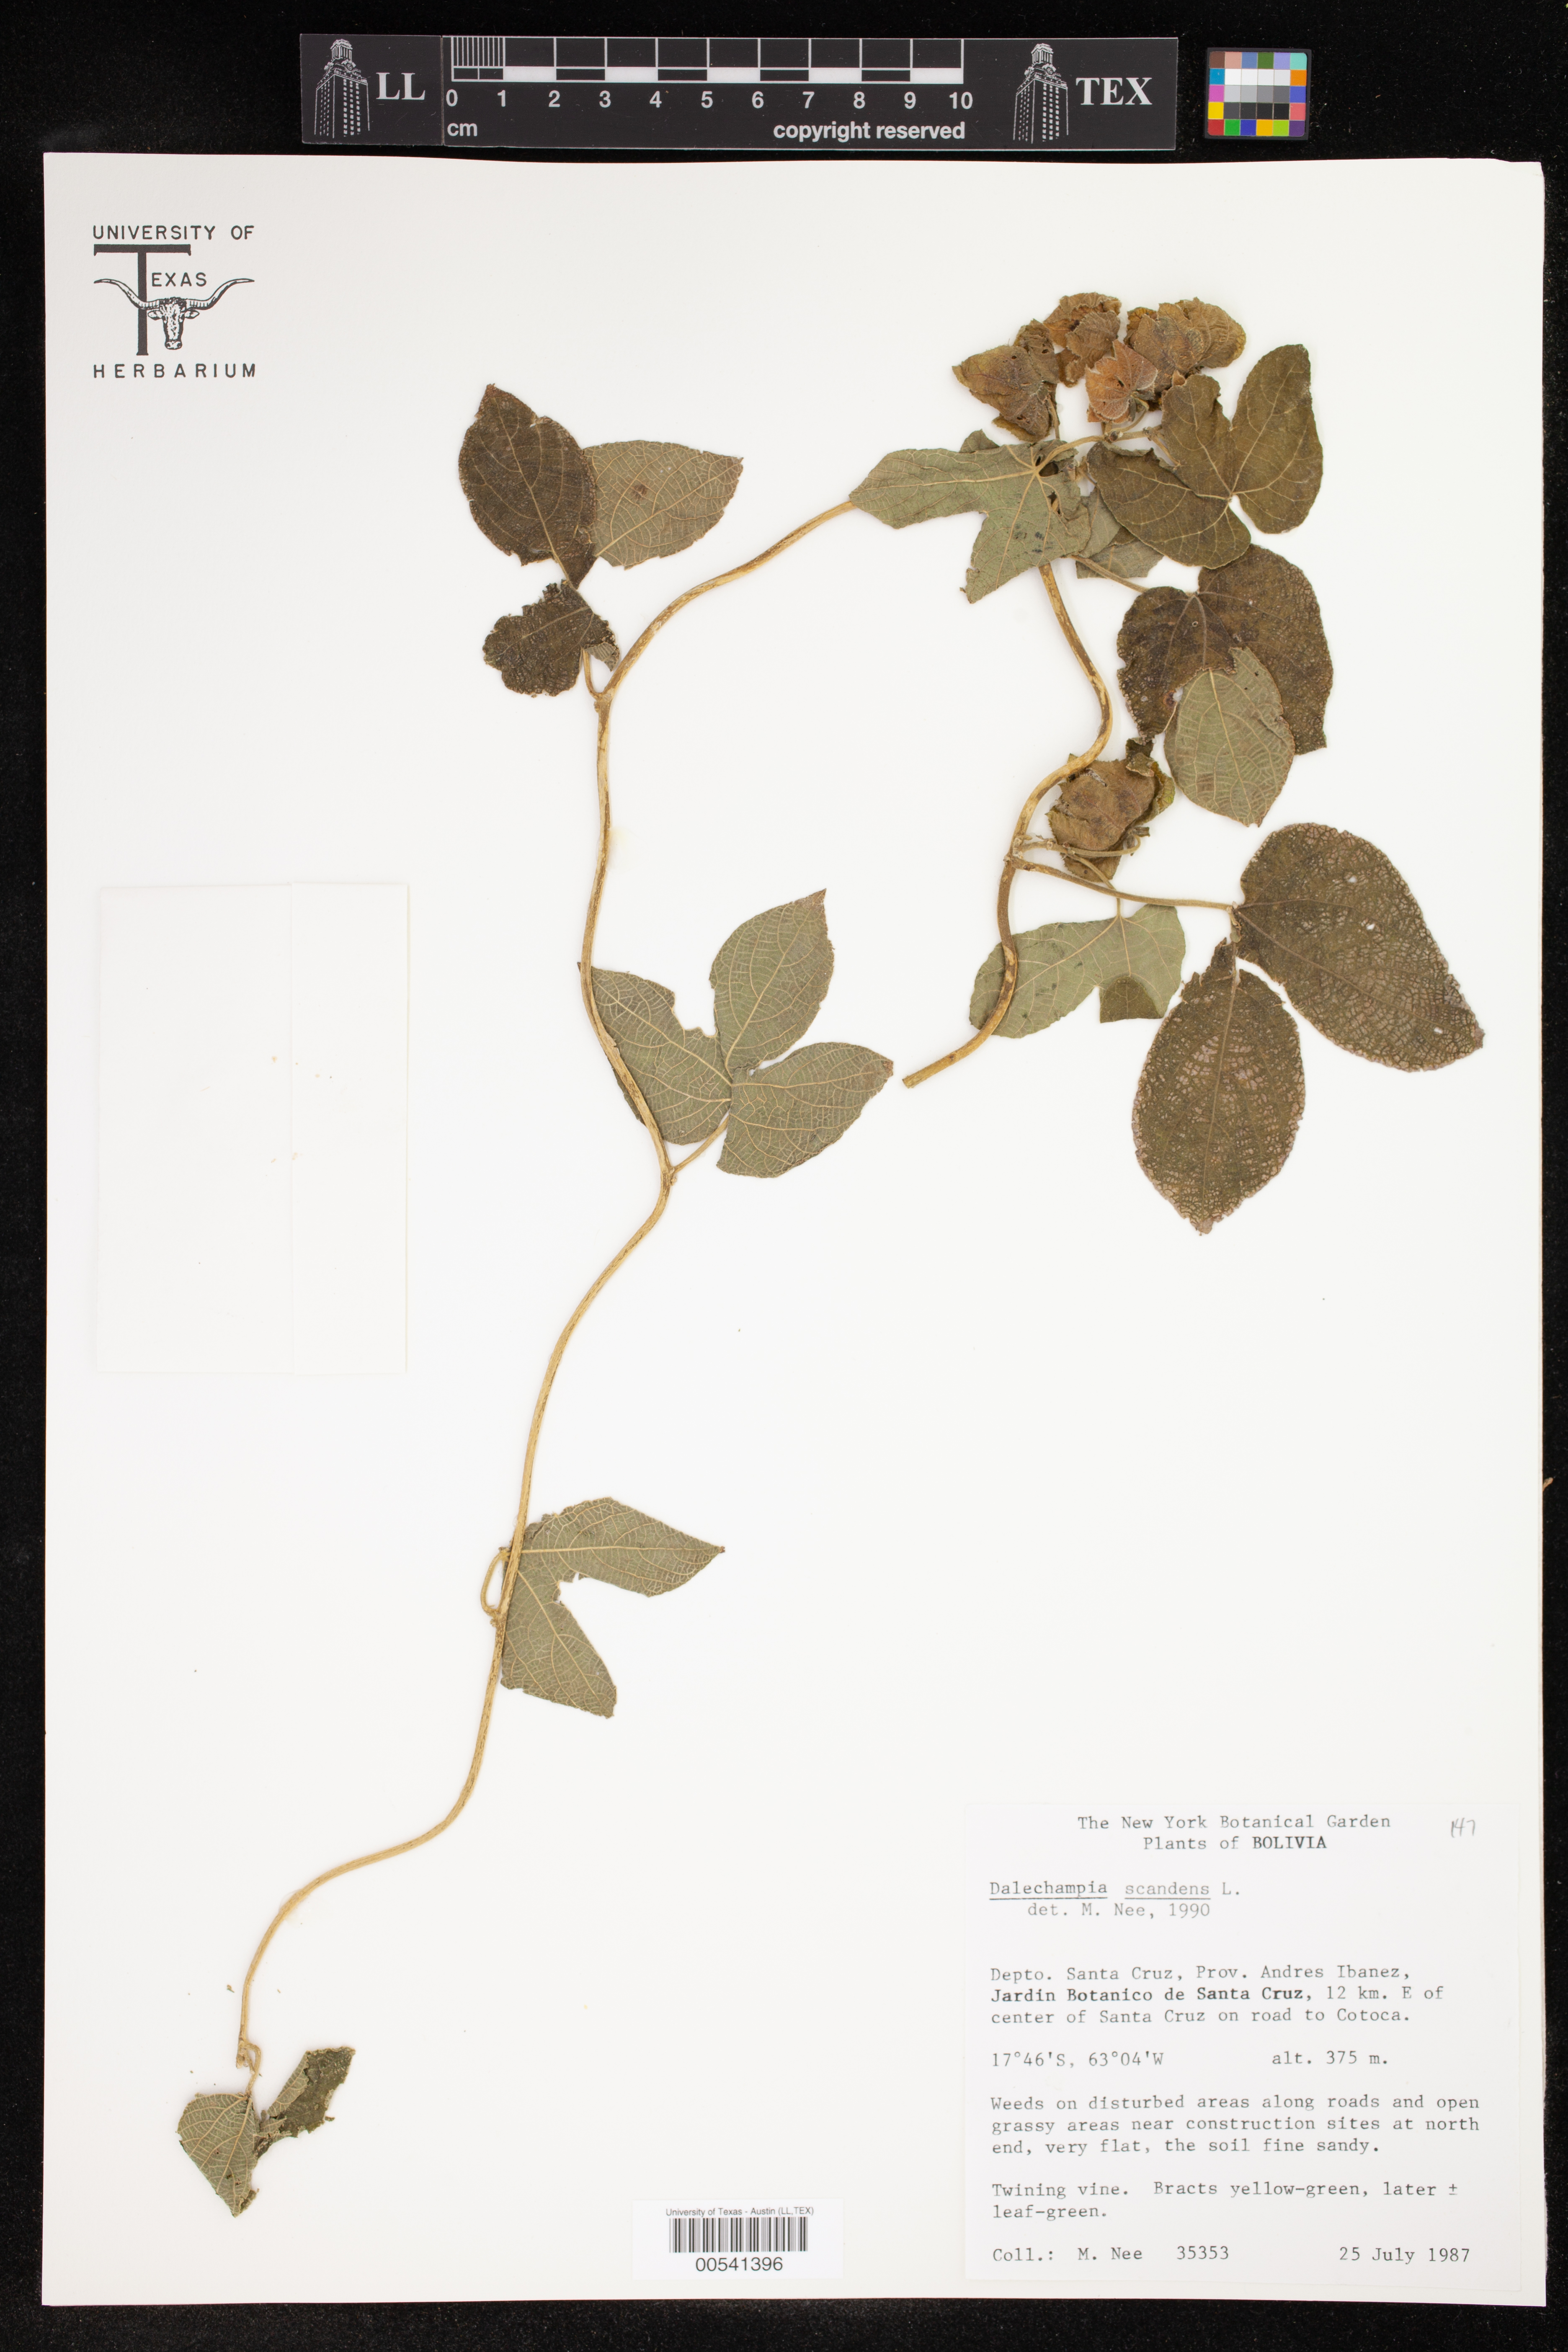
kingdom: Plantae
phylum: Tracheophyta
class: Magnoliopsida
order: Malpighiales
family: Euphorbiaceae
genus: Dalechampia
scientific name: Dalechampia scandens
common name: Spurgecreeper
